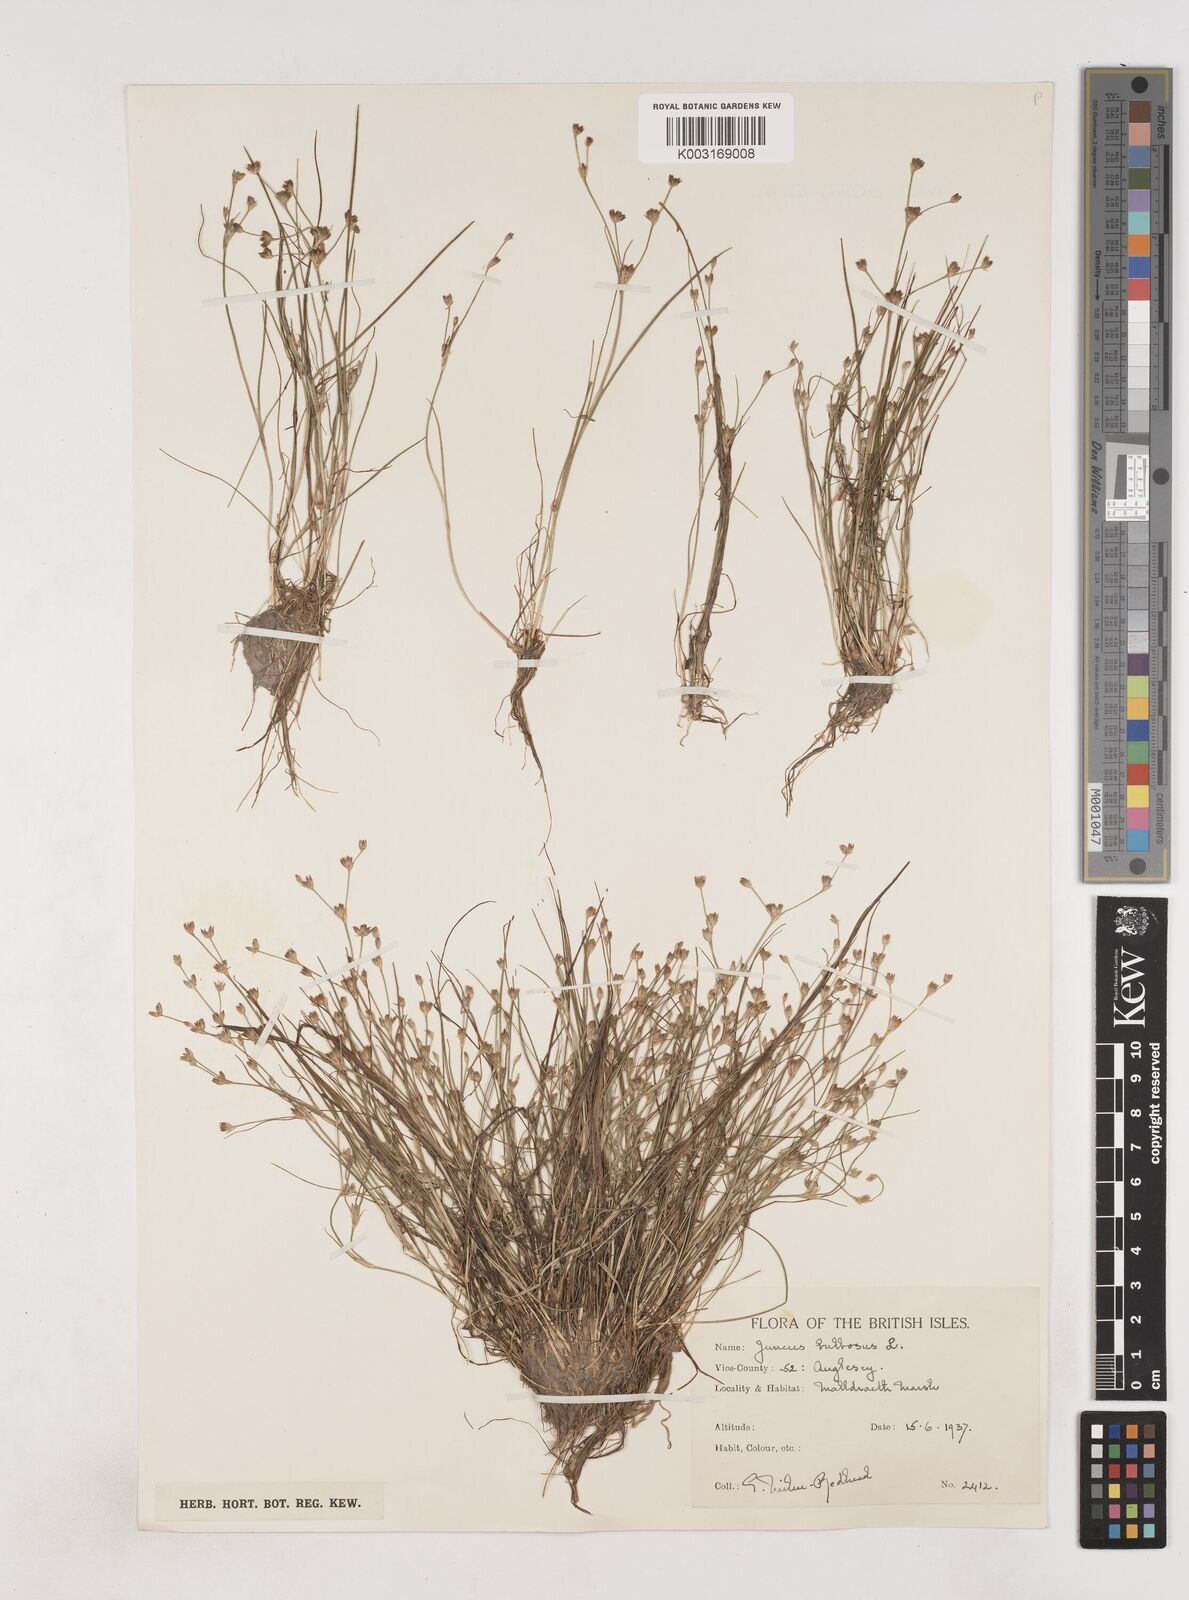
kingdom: Plantae
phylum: Tracheophyta
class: Liliopsida
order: Poales
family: Juncaceae
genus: Juncus
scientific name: Juncus bulbosus
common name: Bulbous rush
